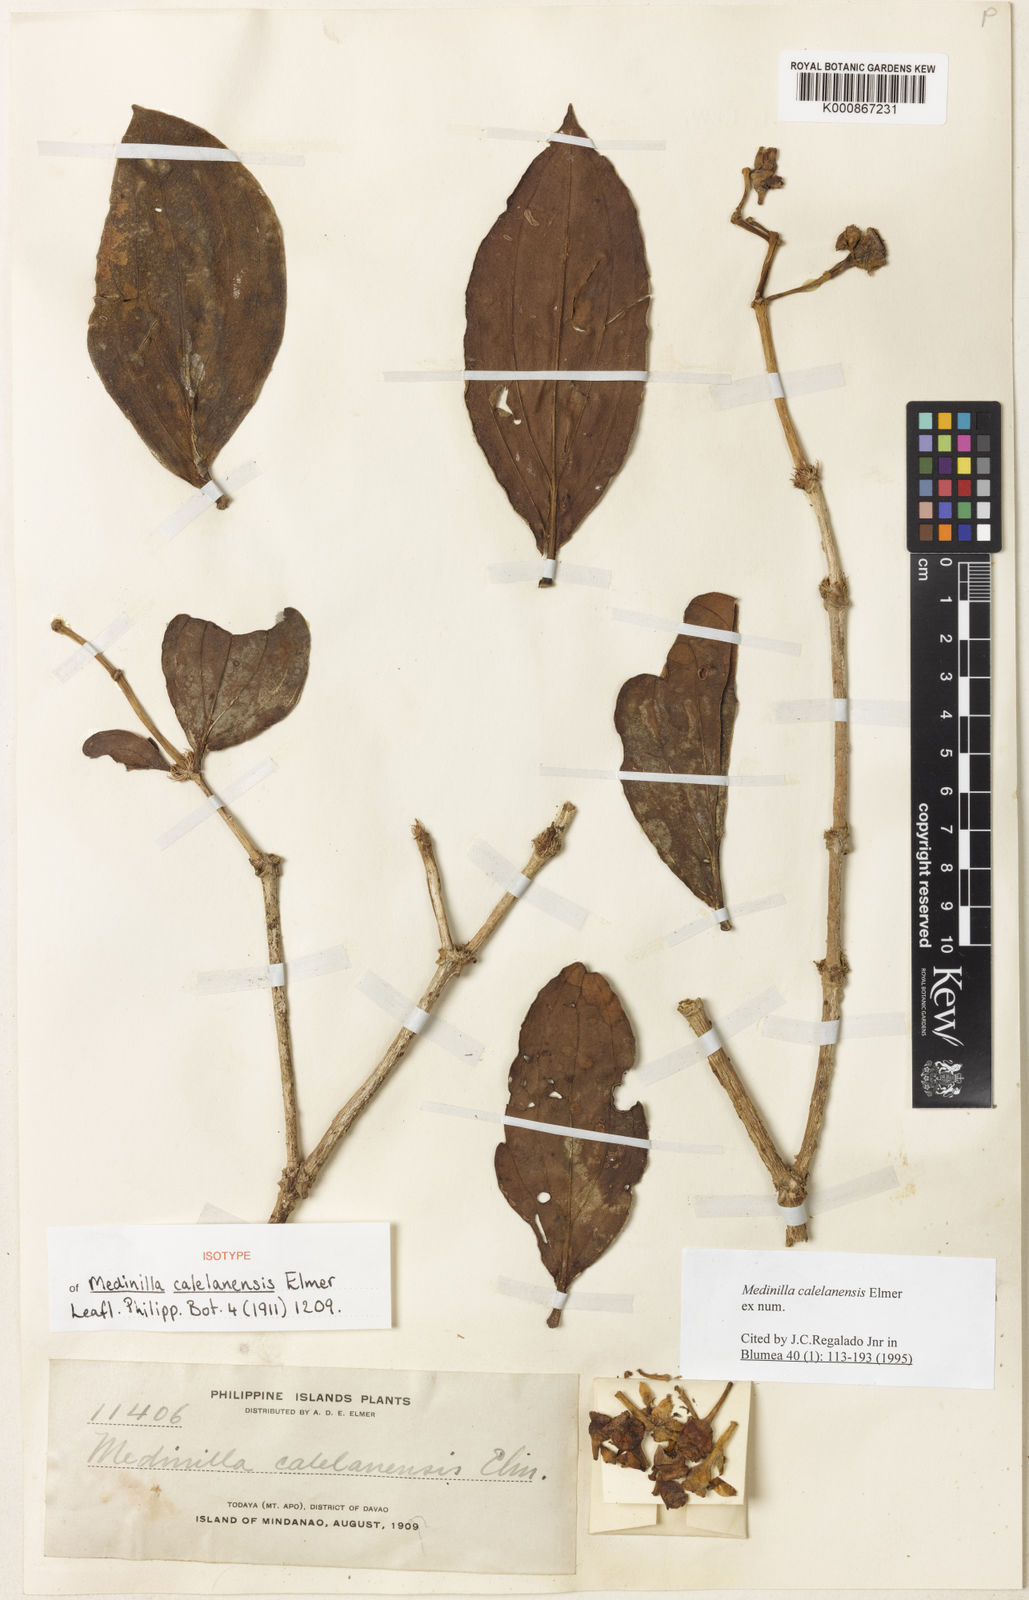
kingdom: Plantae
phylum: Tracheophyta
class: Magnoliopsida
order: Myrtales
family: Melastomataceae
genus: Medinilla
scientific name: Medinilla calelanensis
